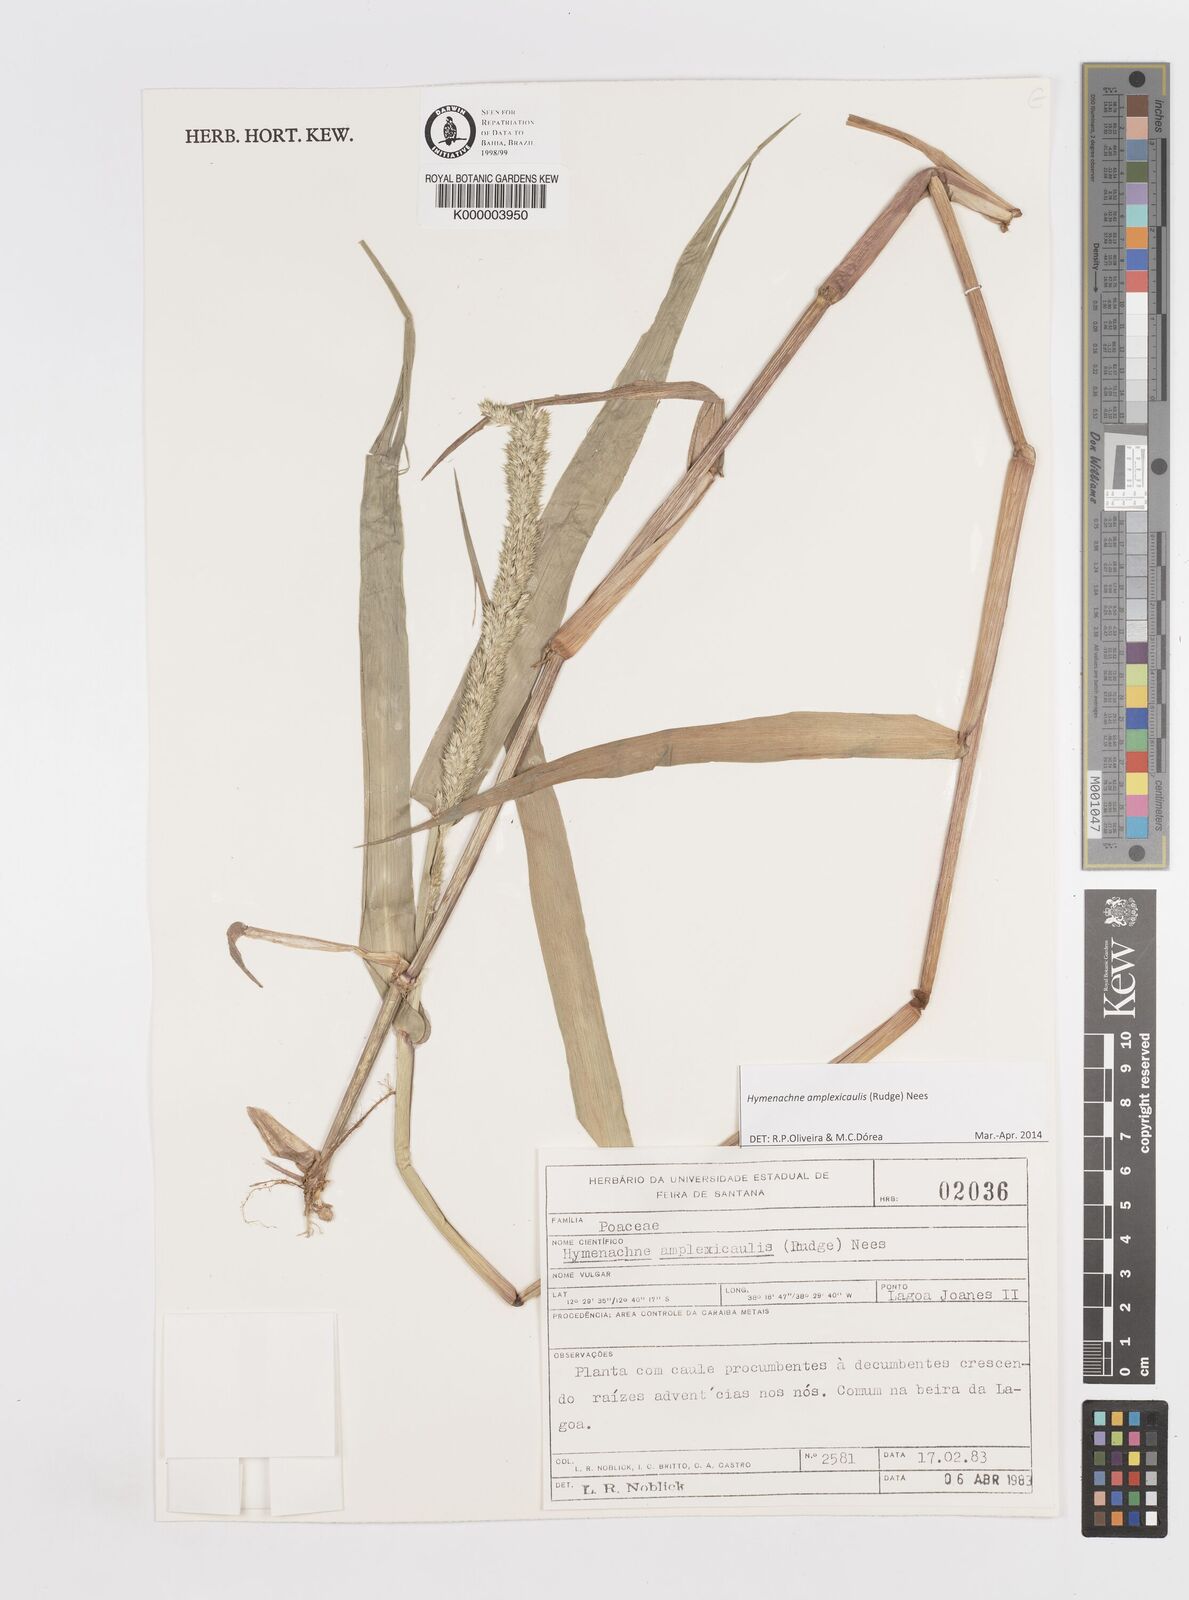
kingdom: Plantae
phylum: Tracheophyta
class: Liliopsida
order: Poales
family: Poaceae
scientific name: Poaceae
